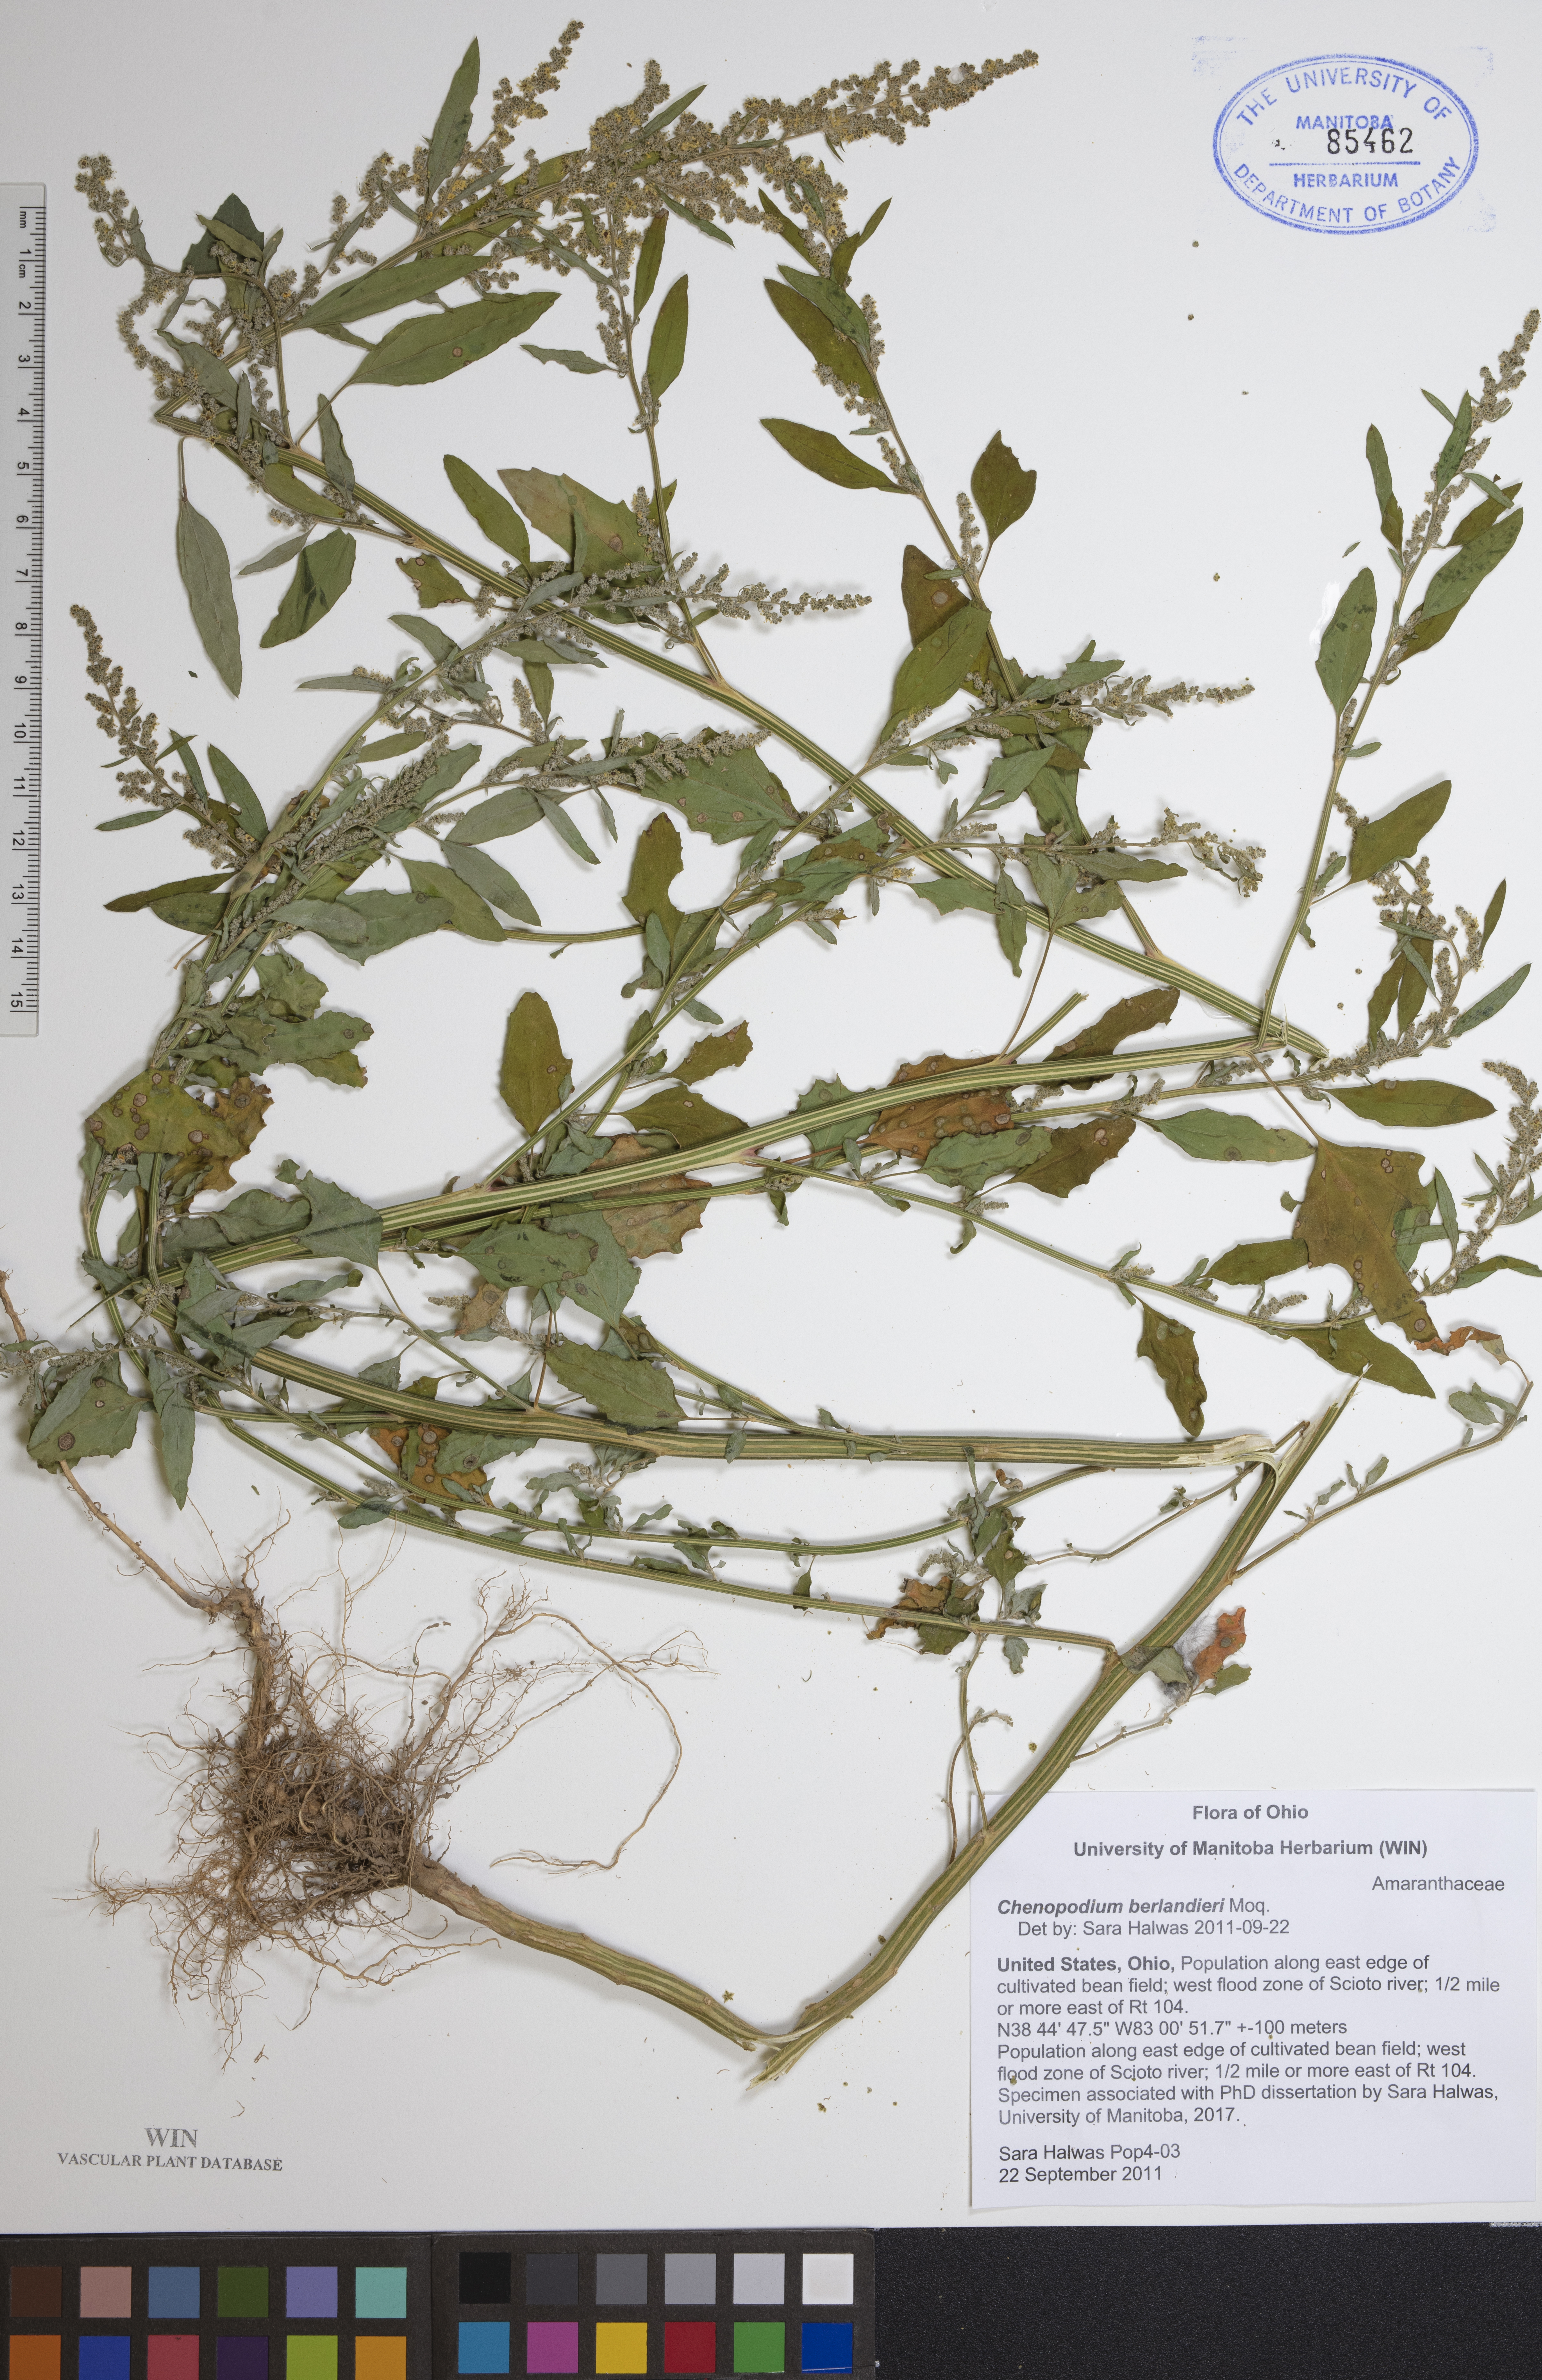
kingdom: Plantae
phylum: Tracheophyta
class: Magnoliopsida
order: Caryophyllales
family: Amaranthaceae
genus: Chenopodium
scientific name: Chenopodium berlandieri
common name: Pit-seed goosefoot
